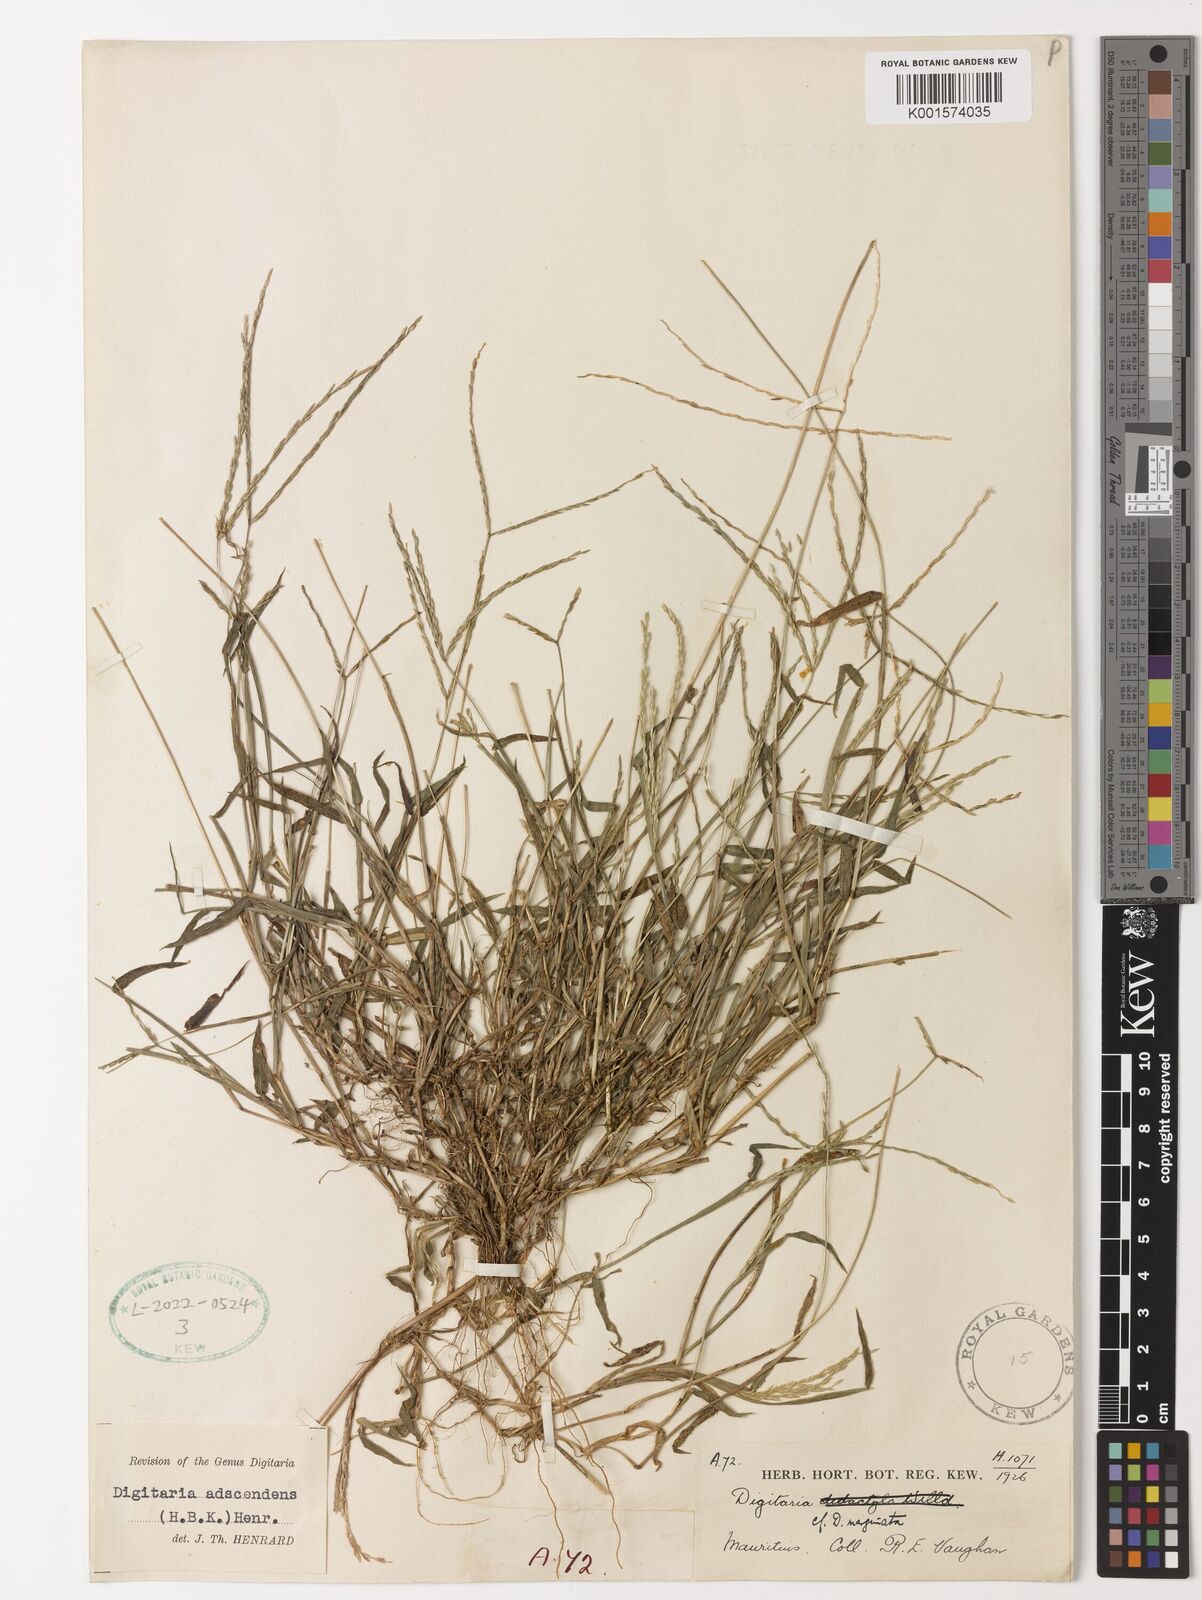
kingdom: Plantae
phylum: Tracheophyta
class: Liliopsida
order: Poales
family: Poaceae
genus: Digitaria
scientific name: Digitaria ciliaris
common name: Tropical finger-grass
